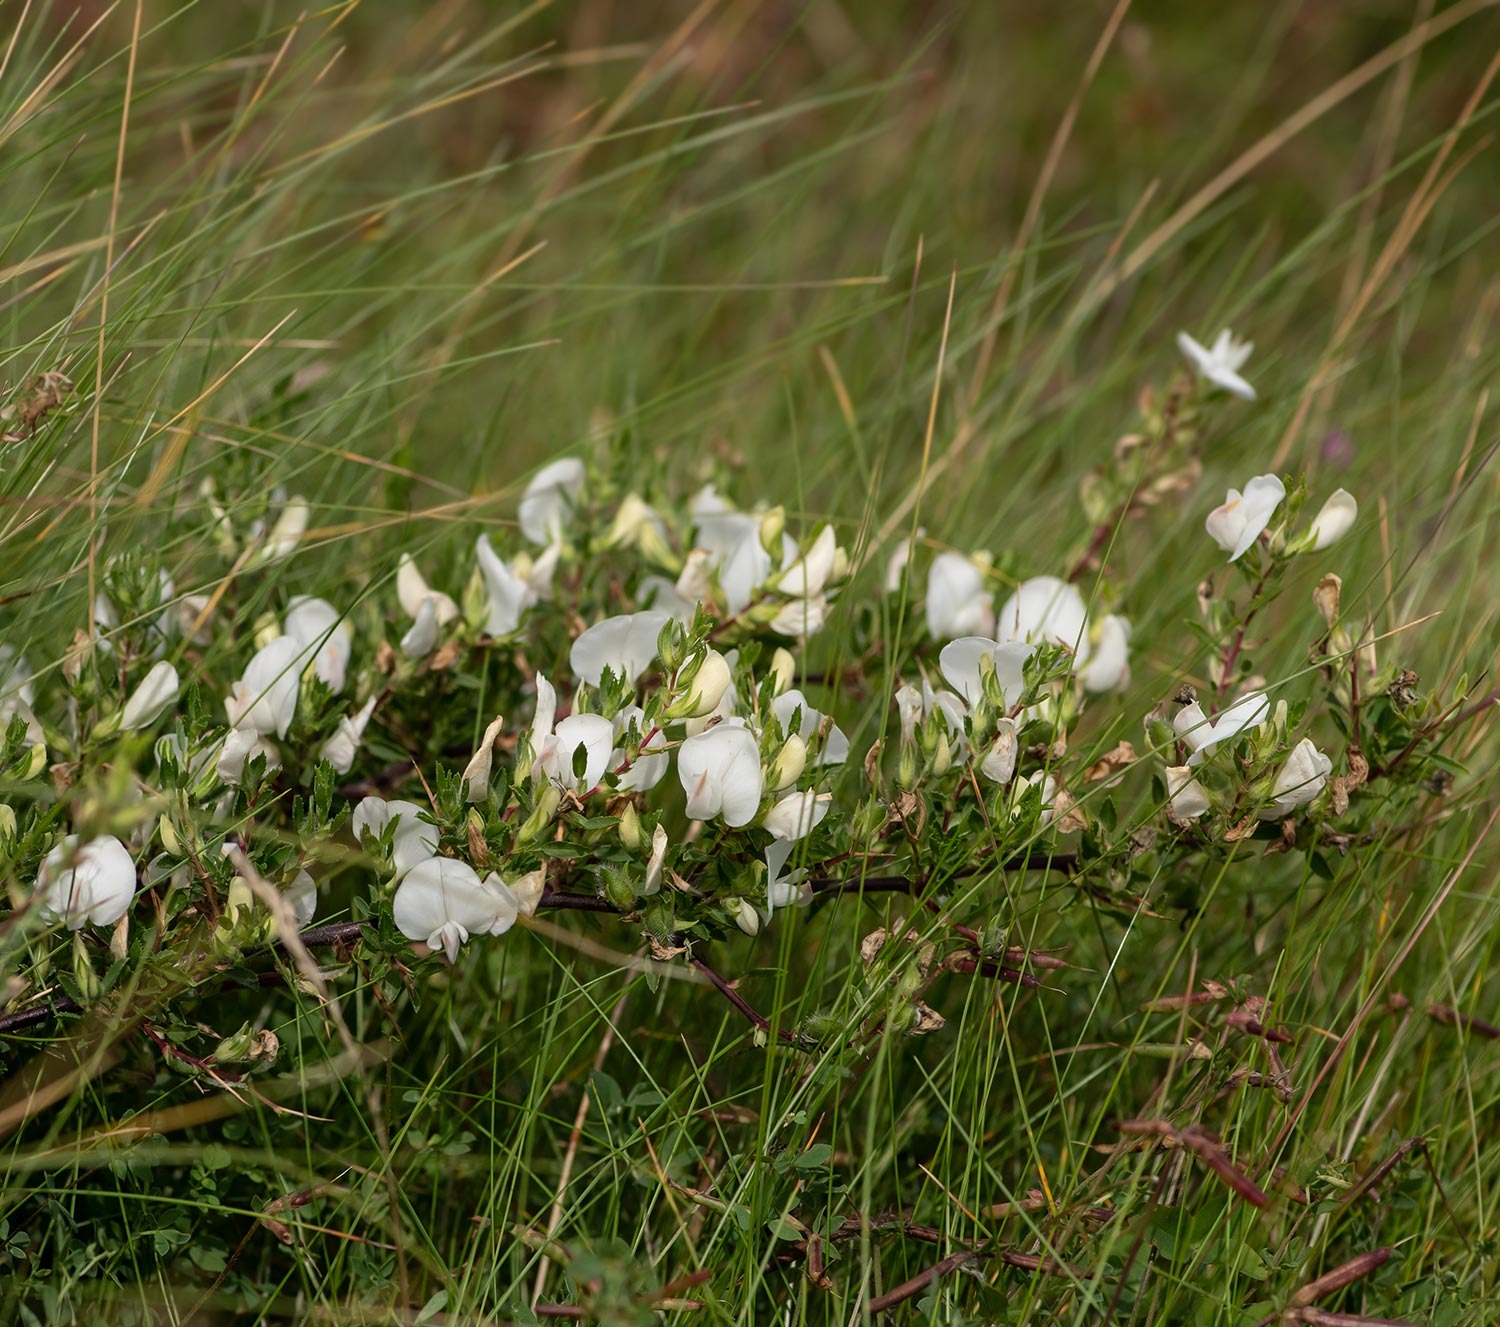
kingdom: Plantae
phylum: Tracheophyta
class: Magnoliopsida
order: Fabales
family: Fabaceae
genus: Ononis
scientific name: Ononis spinosa
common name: Strand-krageklo
